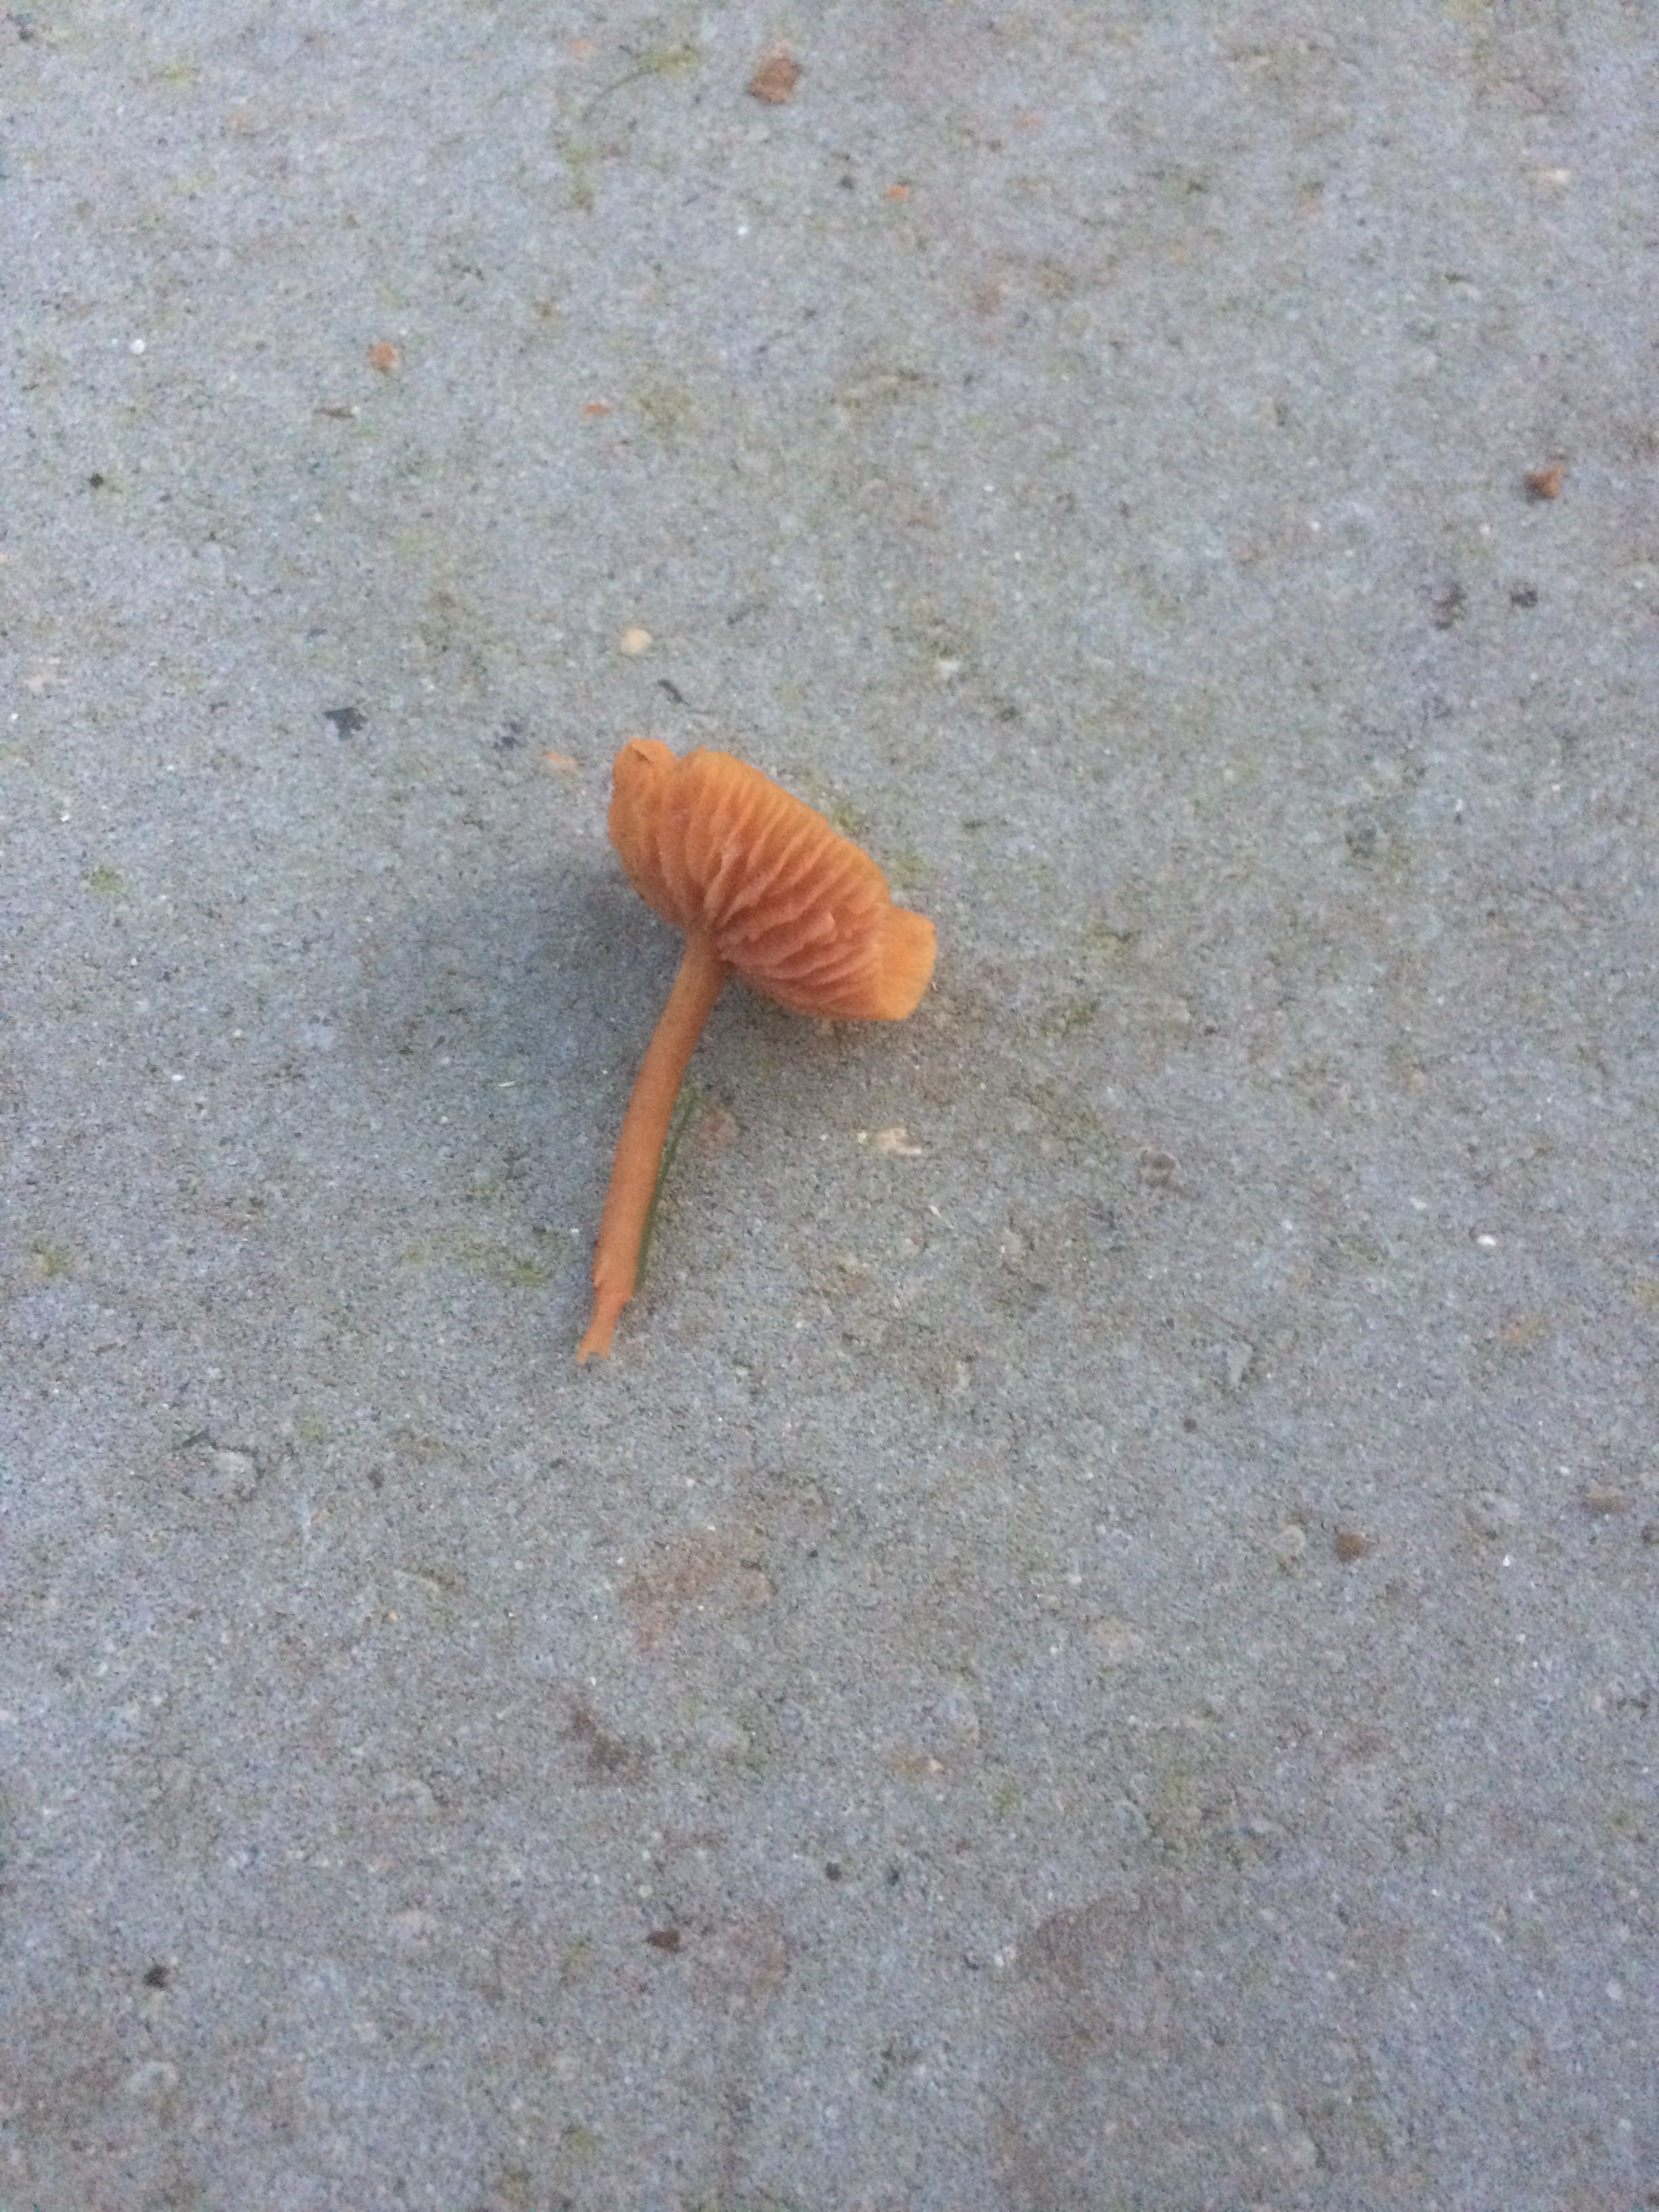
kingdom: Fungi
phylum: Basidiomycota
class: Agaricomycetes
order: Agaricales
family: Hydnangiaceae
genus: Laccaria
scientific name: Laccaria laccata
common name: rød ametysthat
